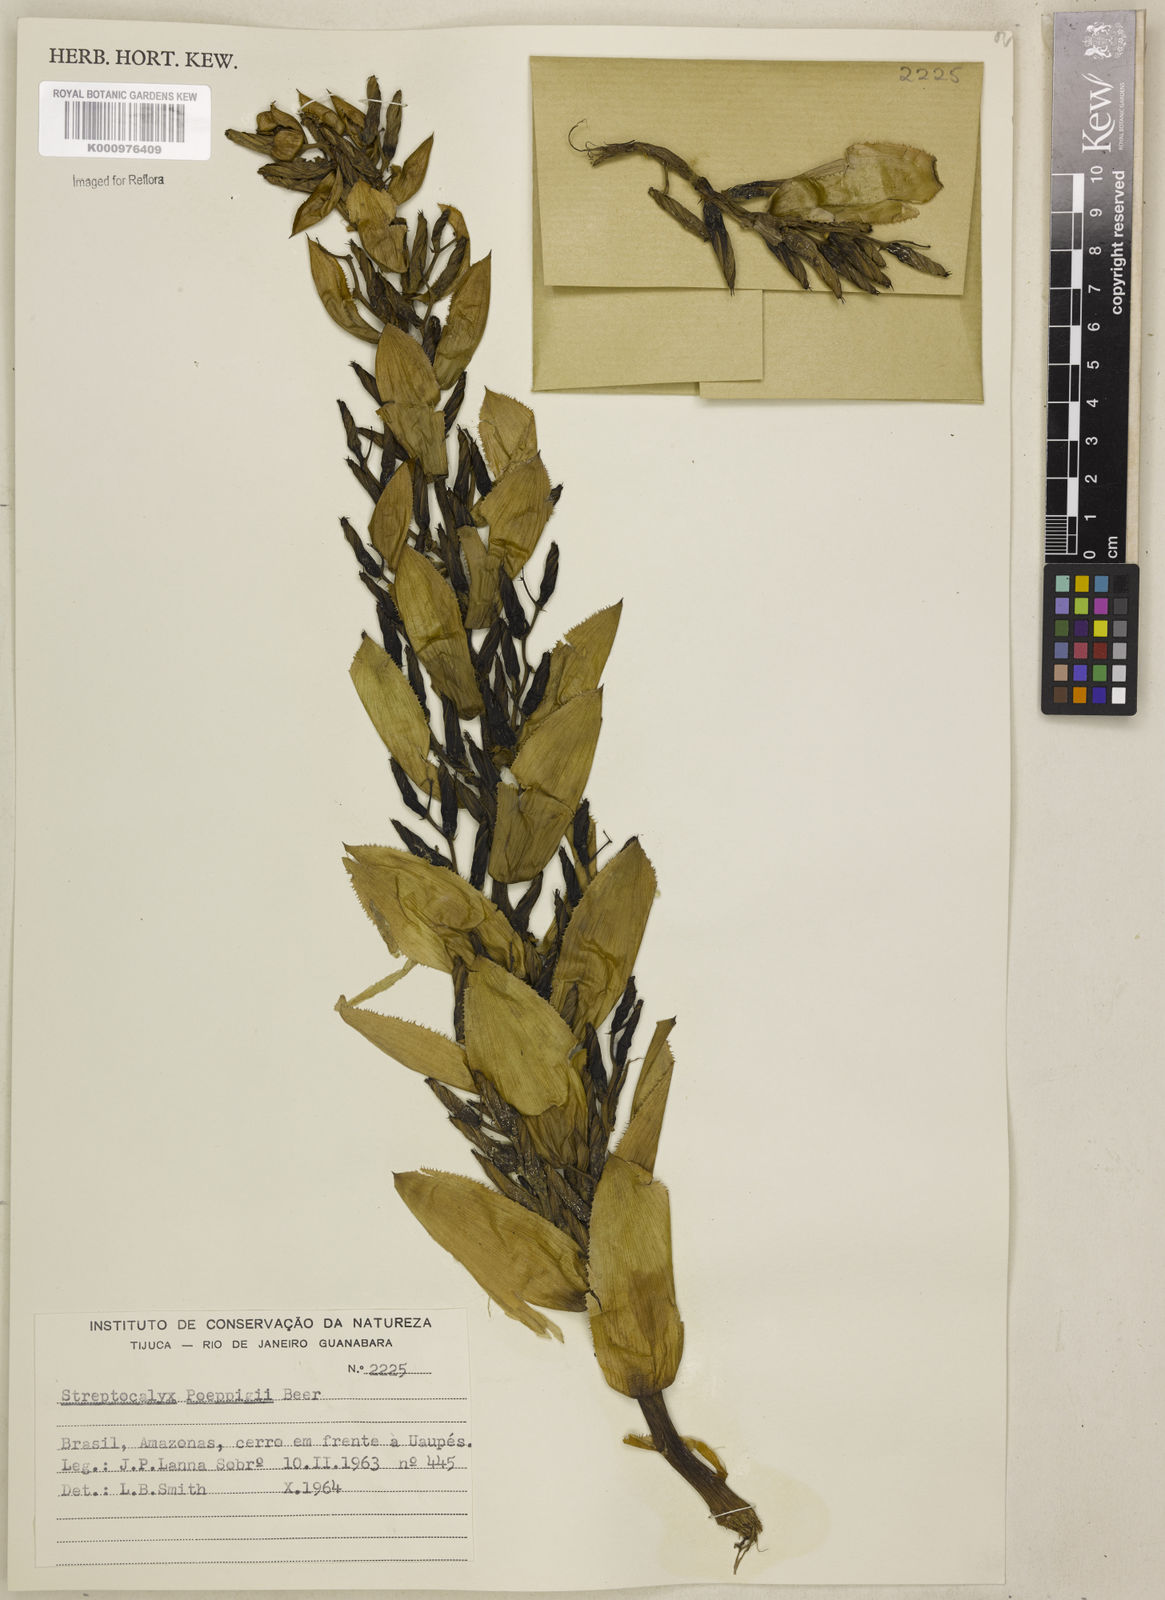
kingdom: Plantae
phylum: Tracheophyta
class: Liliopsida
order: Poales
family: Bromeliaceae
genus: Aechmea
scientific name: Aechmea vallerandii
